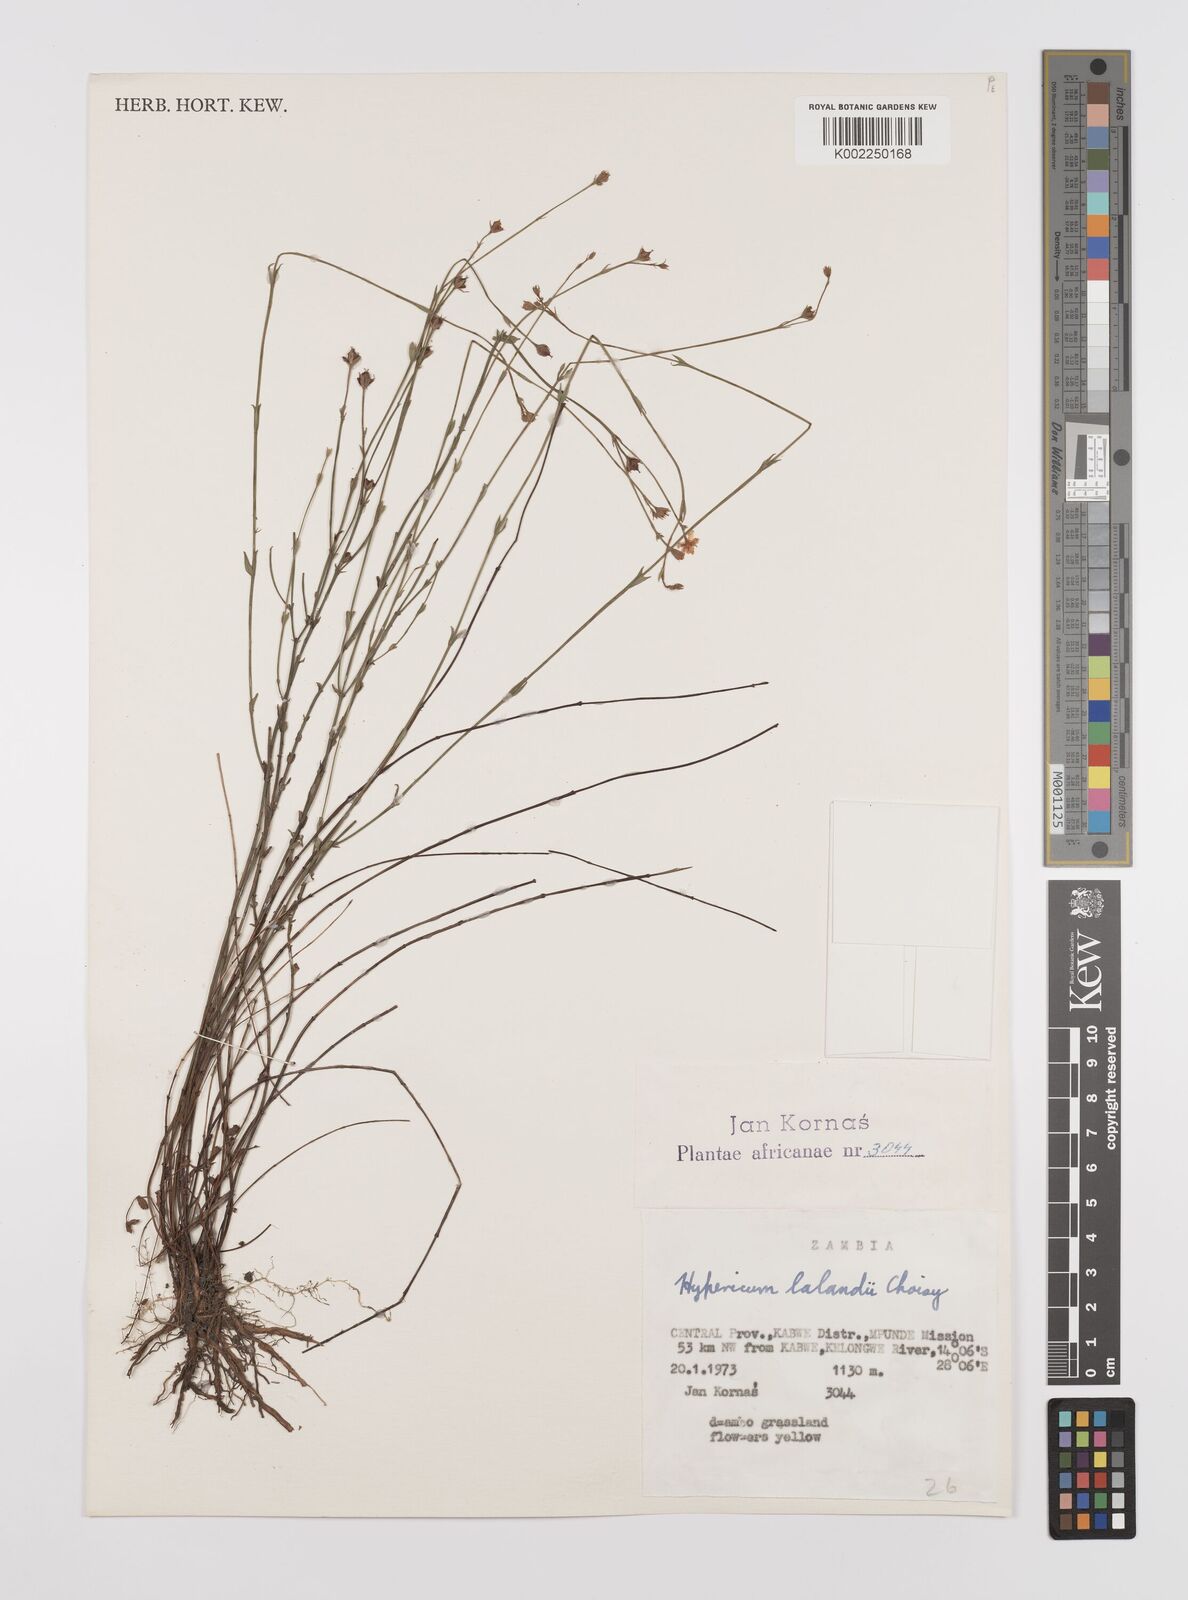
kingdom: Plantae
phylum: Tracheophyta
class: Magnoliopsida
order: Malpighiales
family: Hypericaceae
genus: Hypericum
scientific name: Hypericum lalandii
